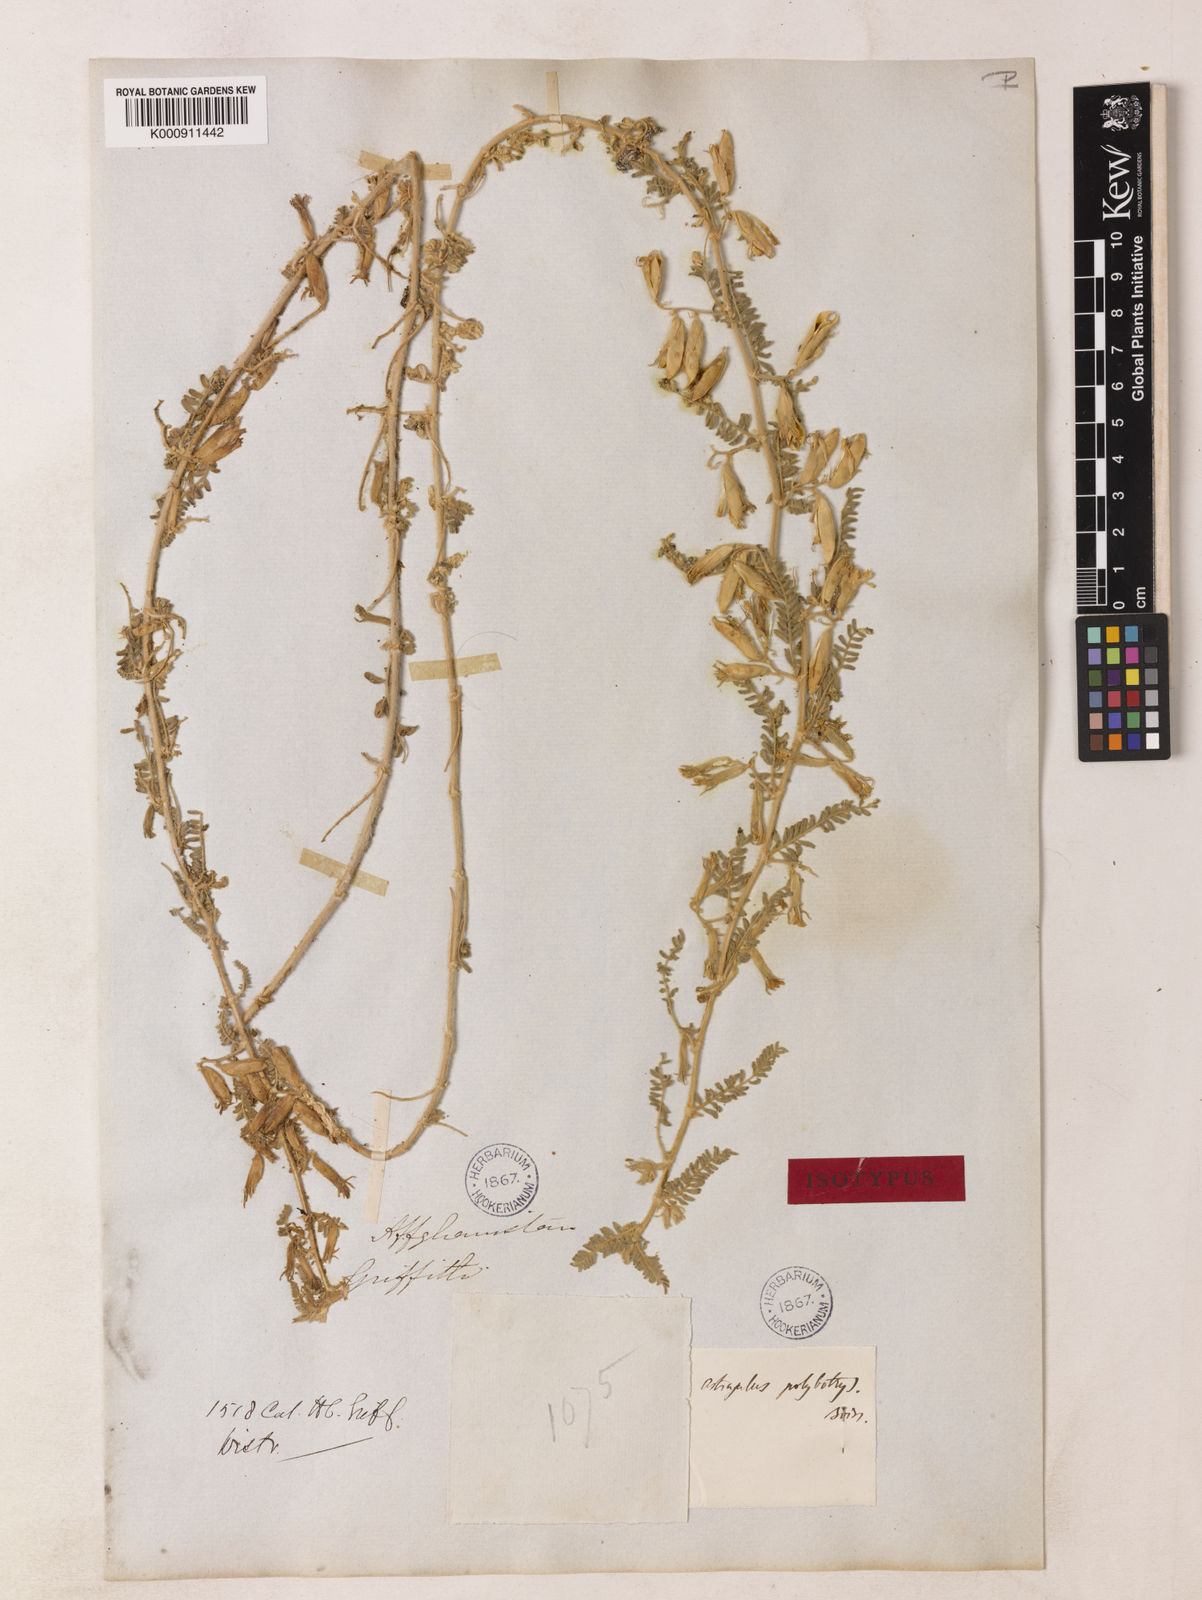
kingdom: Plantae
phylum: Tracheophyta
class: Magnoliopsida
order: Fabales
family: Fabaceae
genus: Astragalus
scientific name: Astragalus polybotrys
